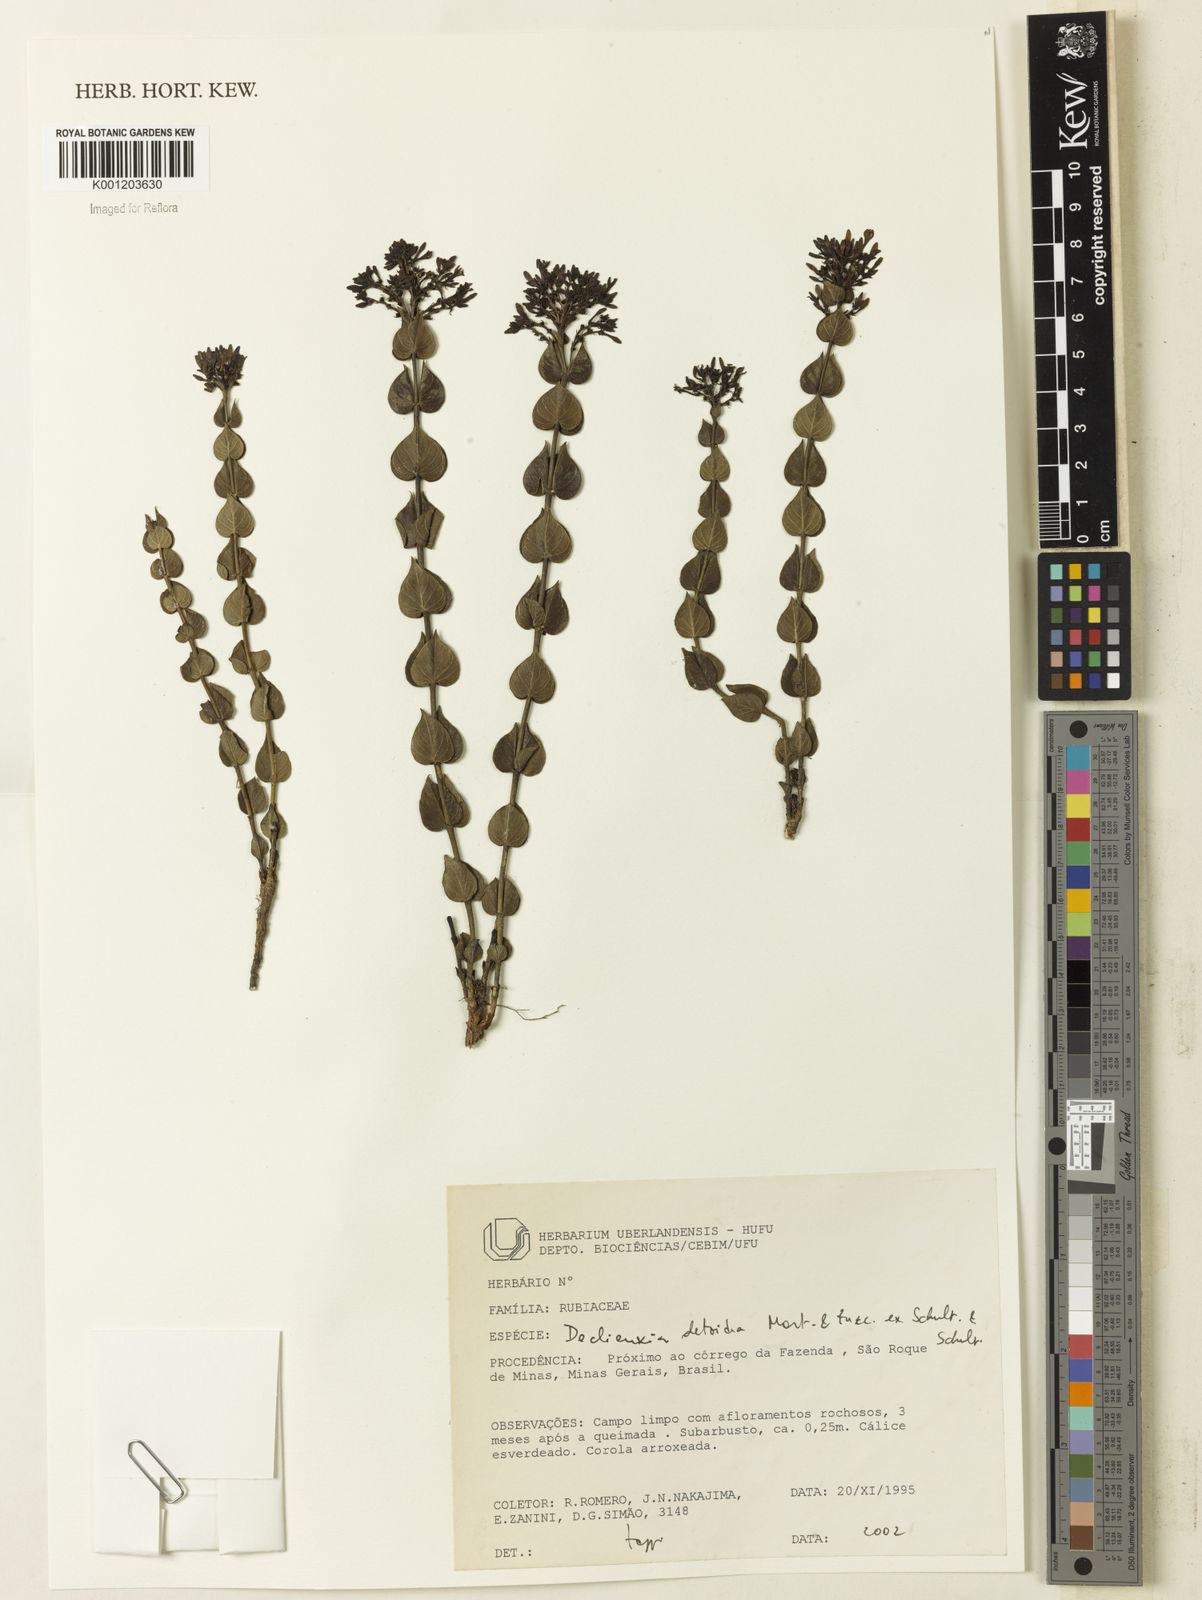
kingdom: Plantae
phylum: Tracheophyta
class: Magnoliopsida
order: Gentianales
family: Rubiaceae
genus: Declieuxia
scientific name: Declieuxia
